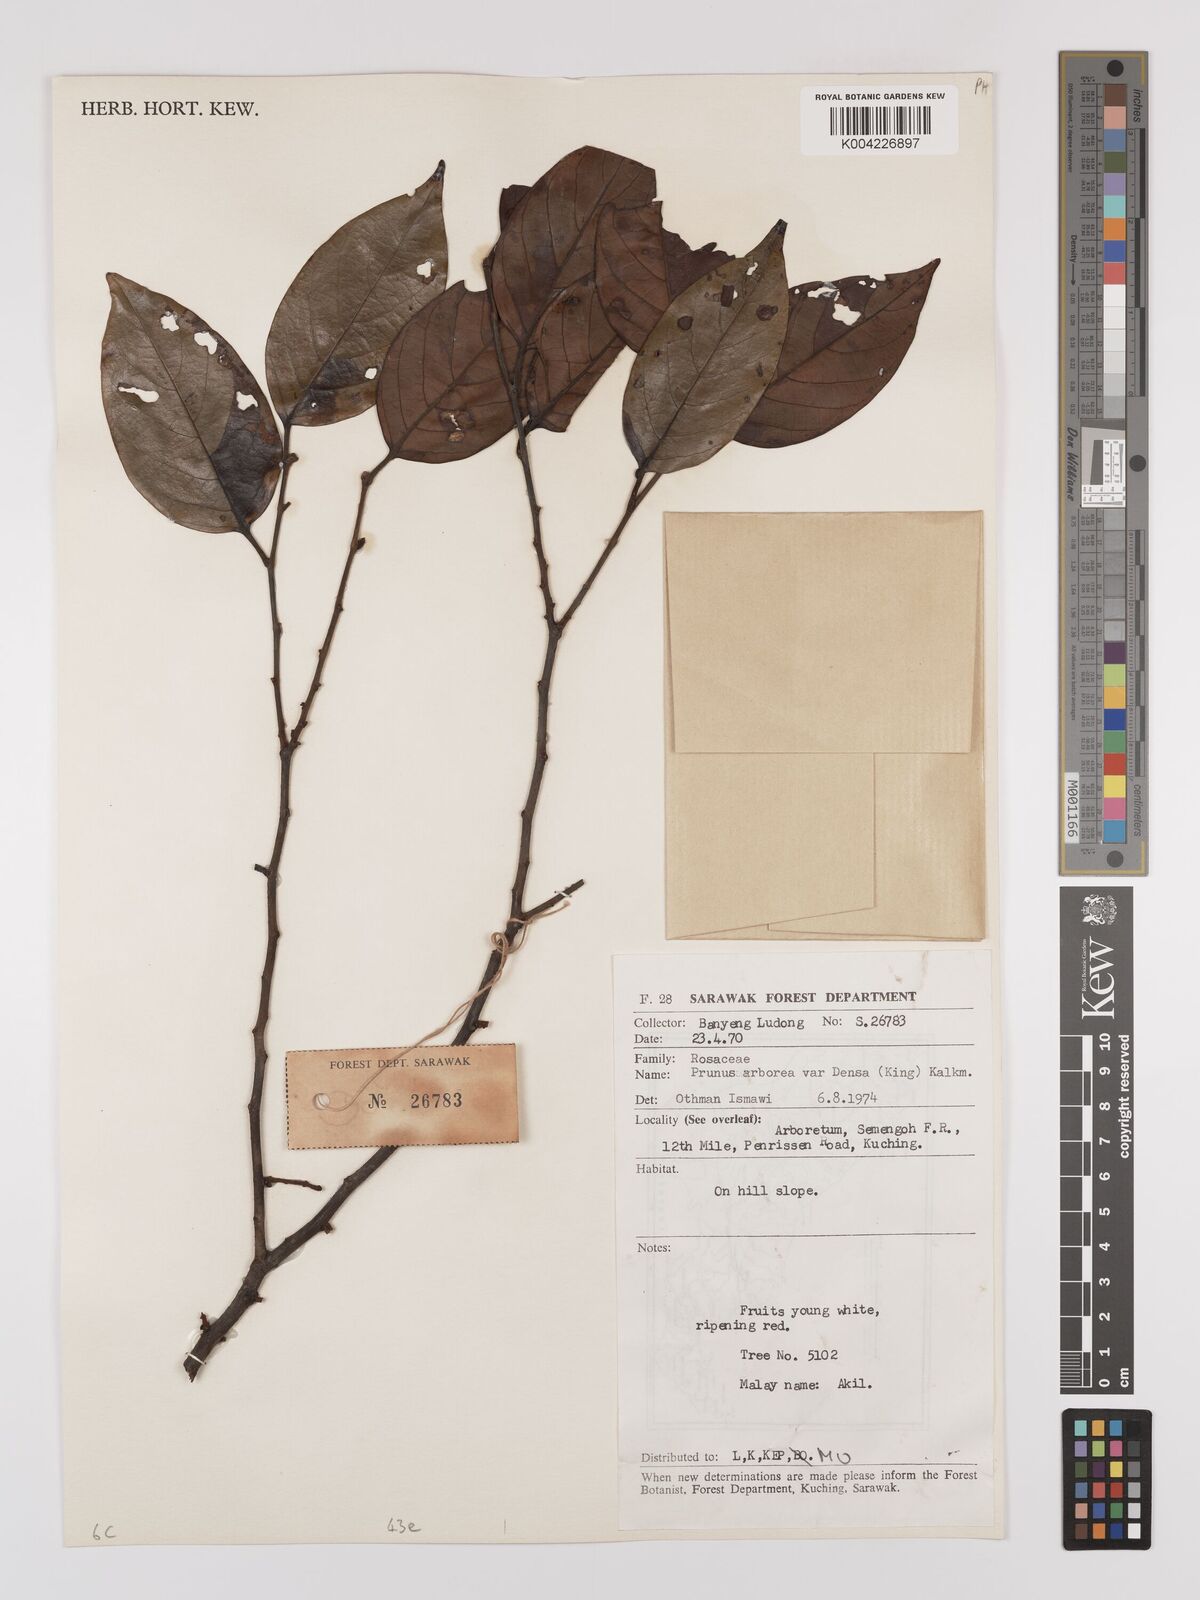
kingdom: Plantae
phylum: Tracheophyta
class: Magnoliopsida
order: Rosales
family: Rosaceae
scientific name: Rosaceae
